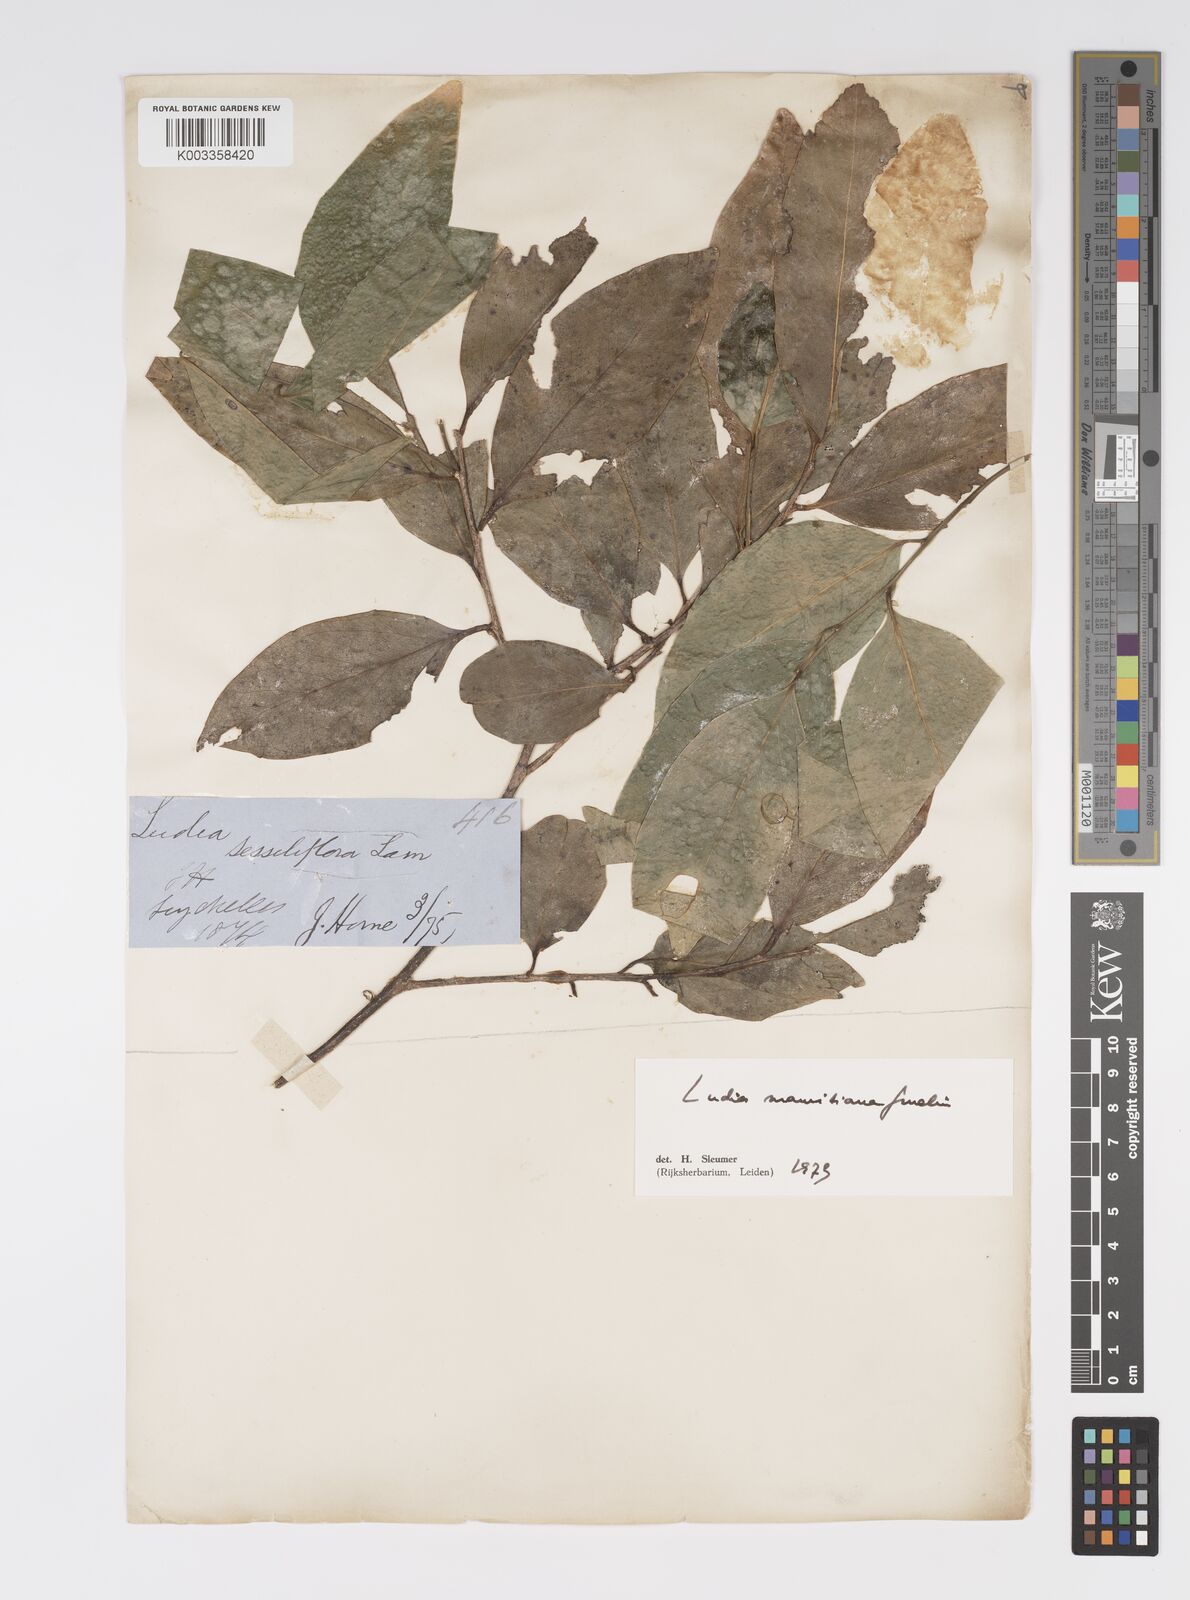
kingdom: Plantae
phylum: Tracheophyta
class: Magnoliopsida
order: Malpighiales
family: Salicaceae
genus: Ludia
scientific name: Ludia mauritiana
